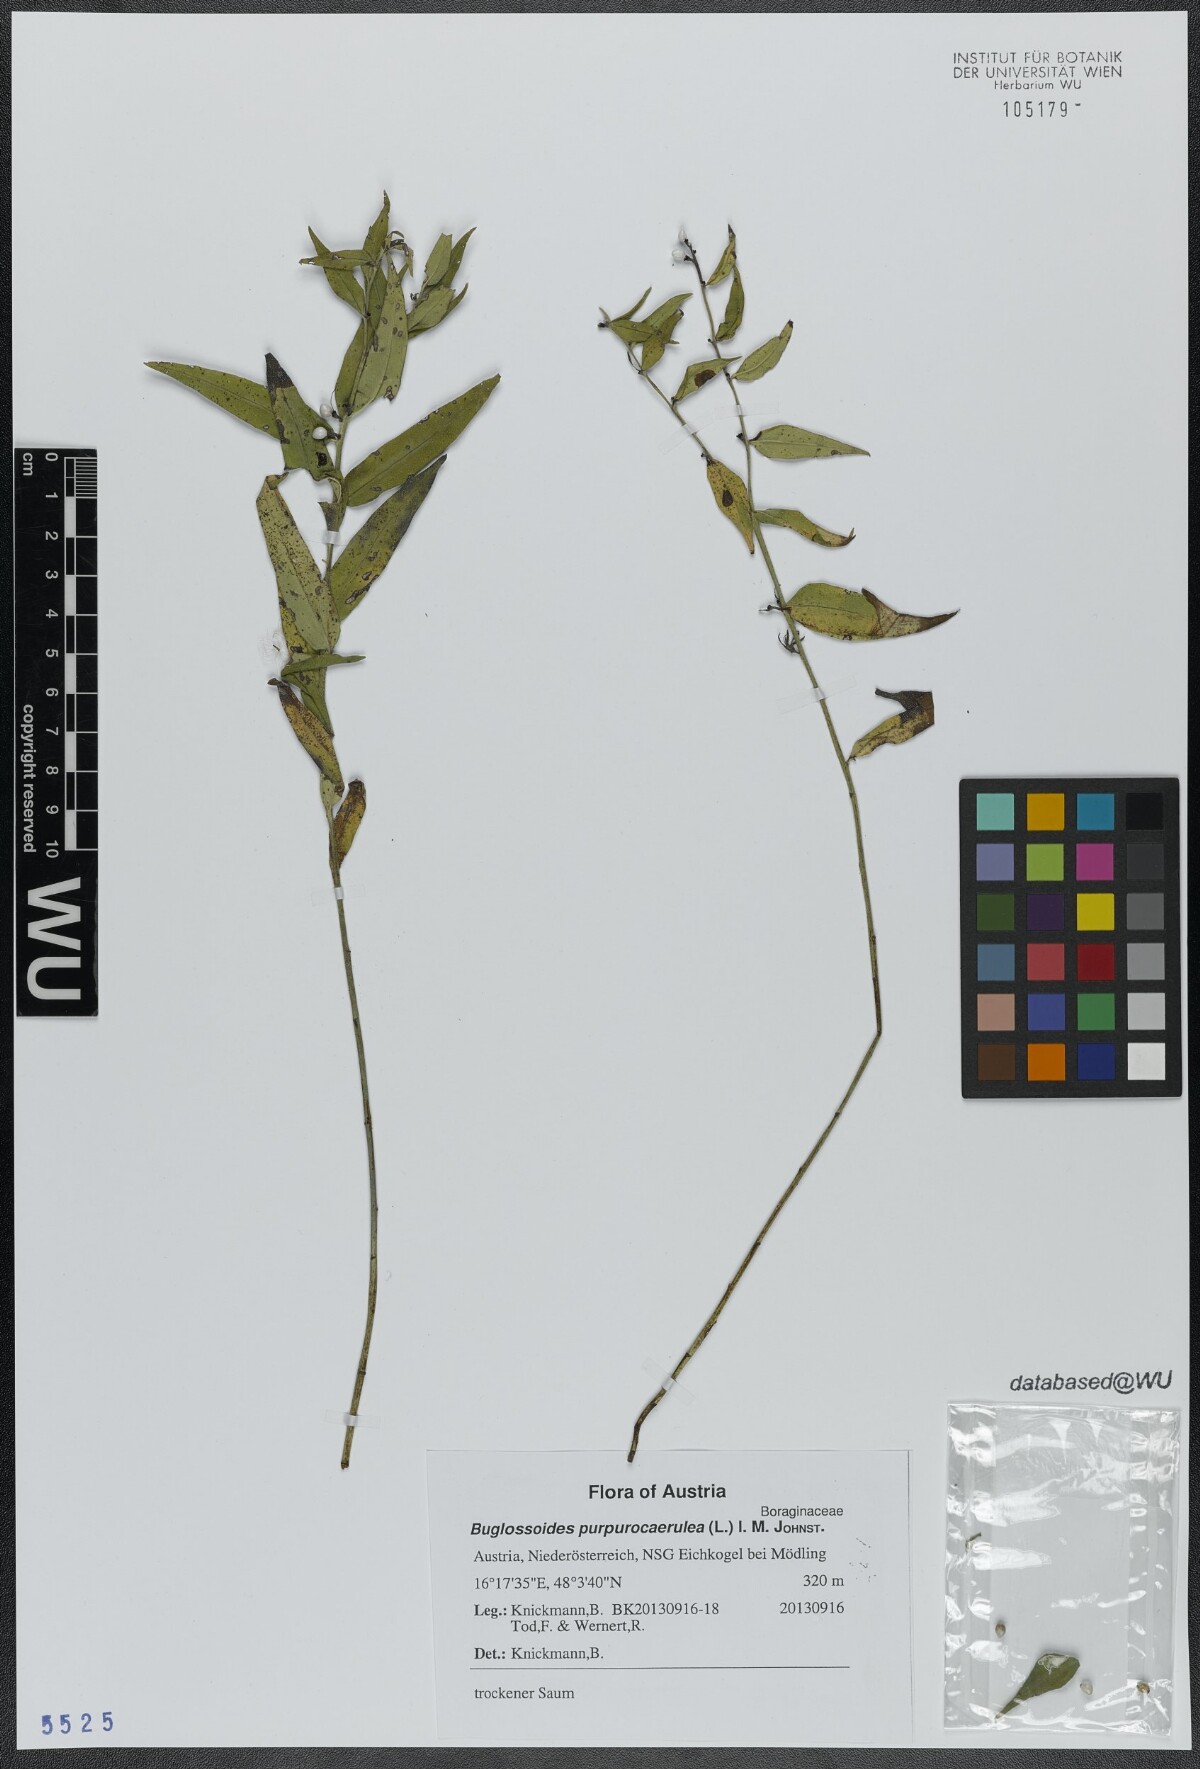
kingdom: Plantae
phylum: Tracheophyta
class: Magnoliopsida
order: Boraginales
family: Boraginaceae
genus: Aegonychon
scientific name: Aegonychon purpurocaeruleum
